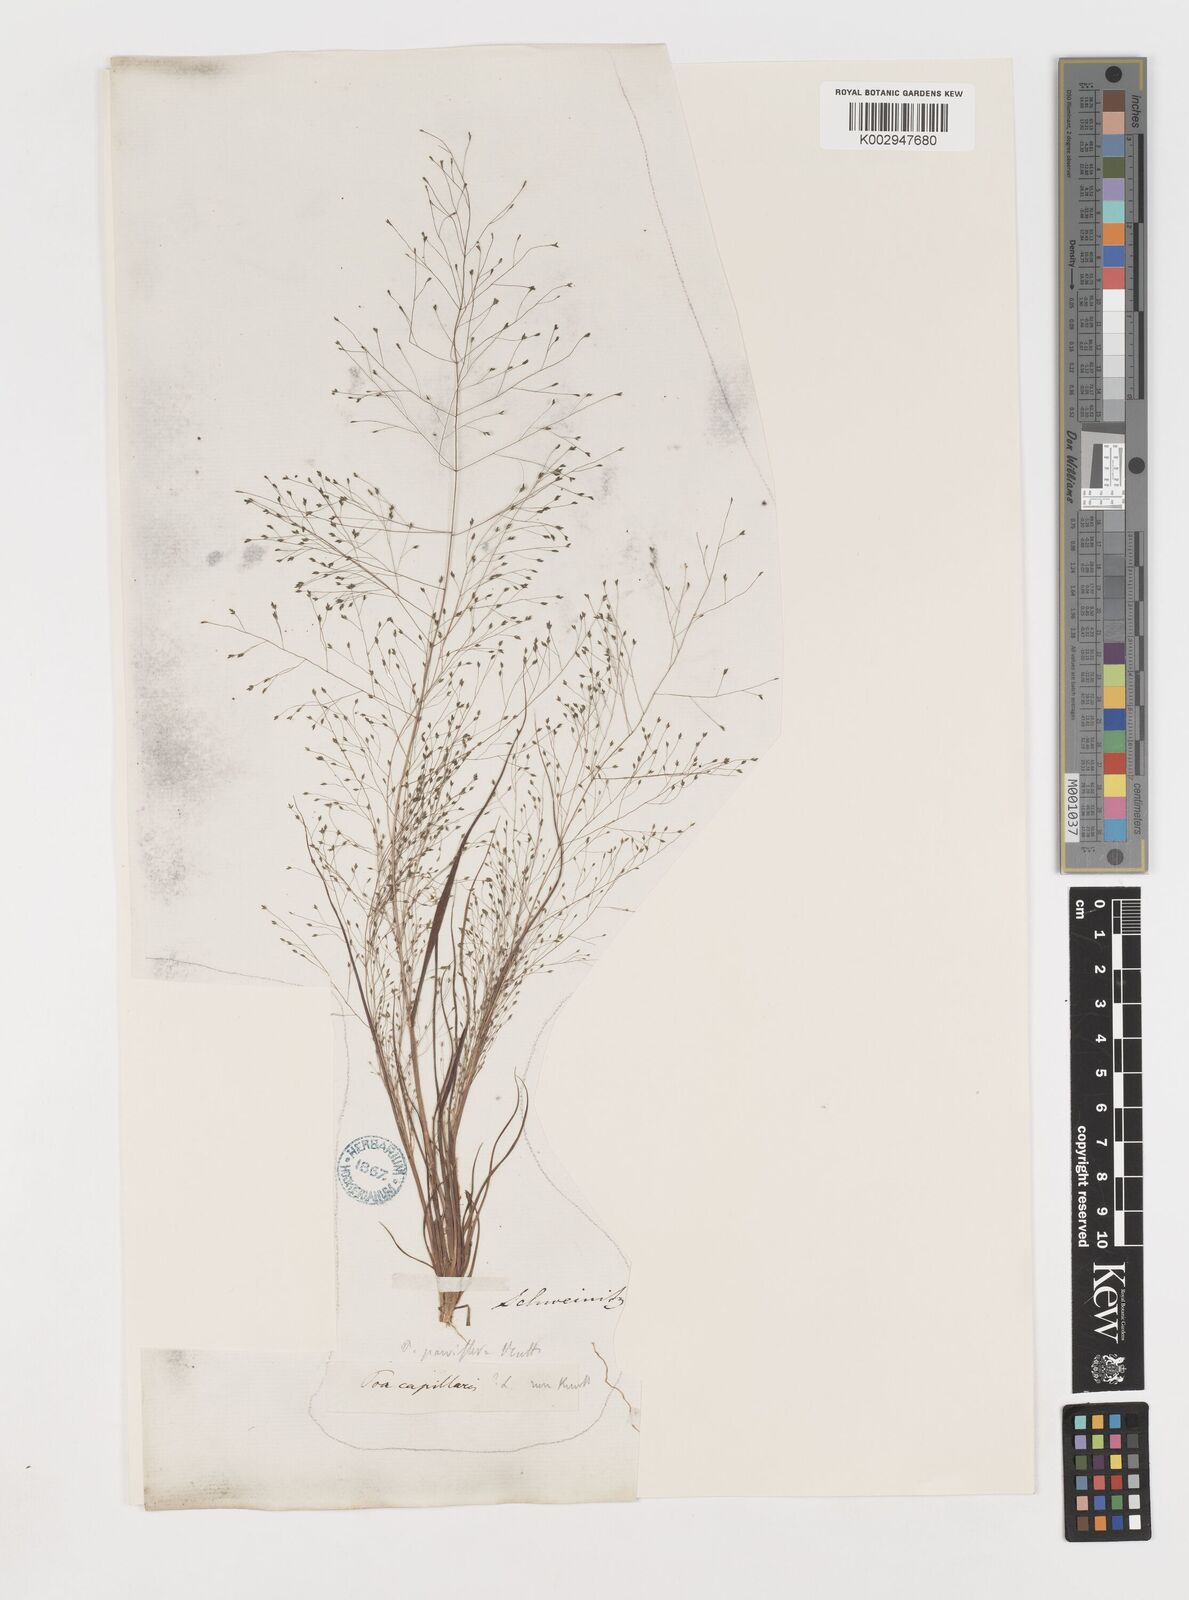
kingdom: Plantae
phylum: Tracheophyta
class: Liliopsida
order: Poales
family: Poaceae
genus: Eragrostis
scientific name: Eragrostis capillaris
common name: Hair-like lovegrass
